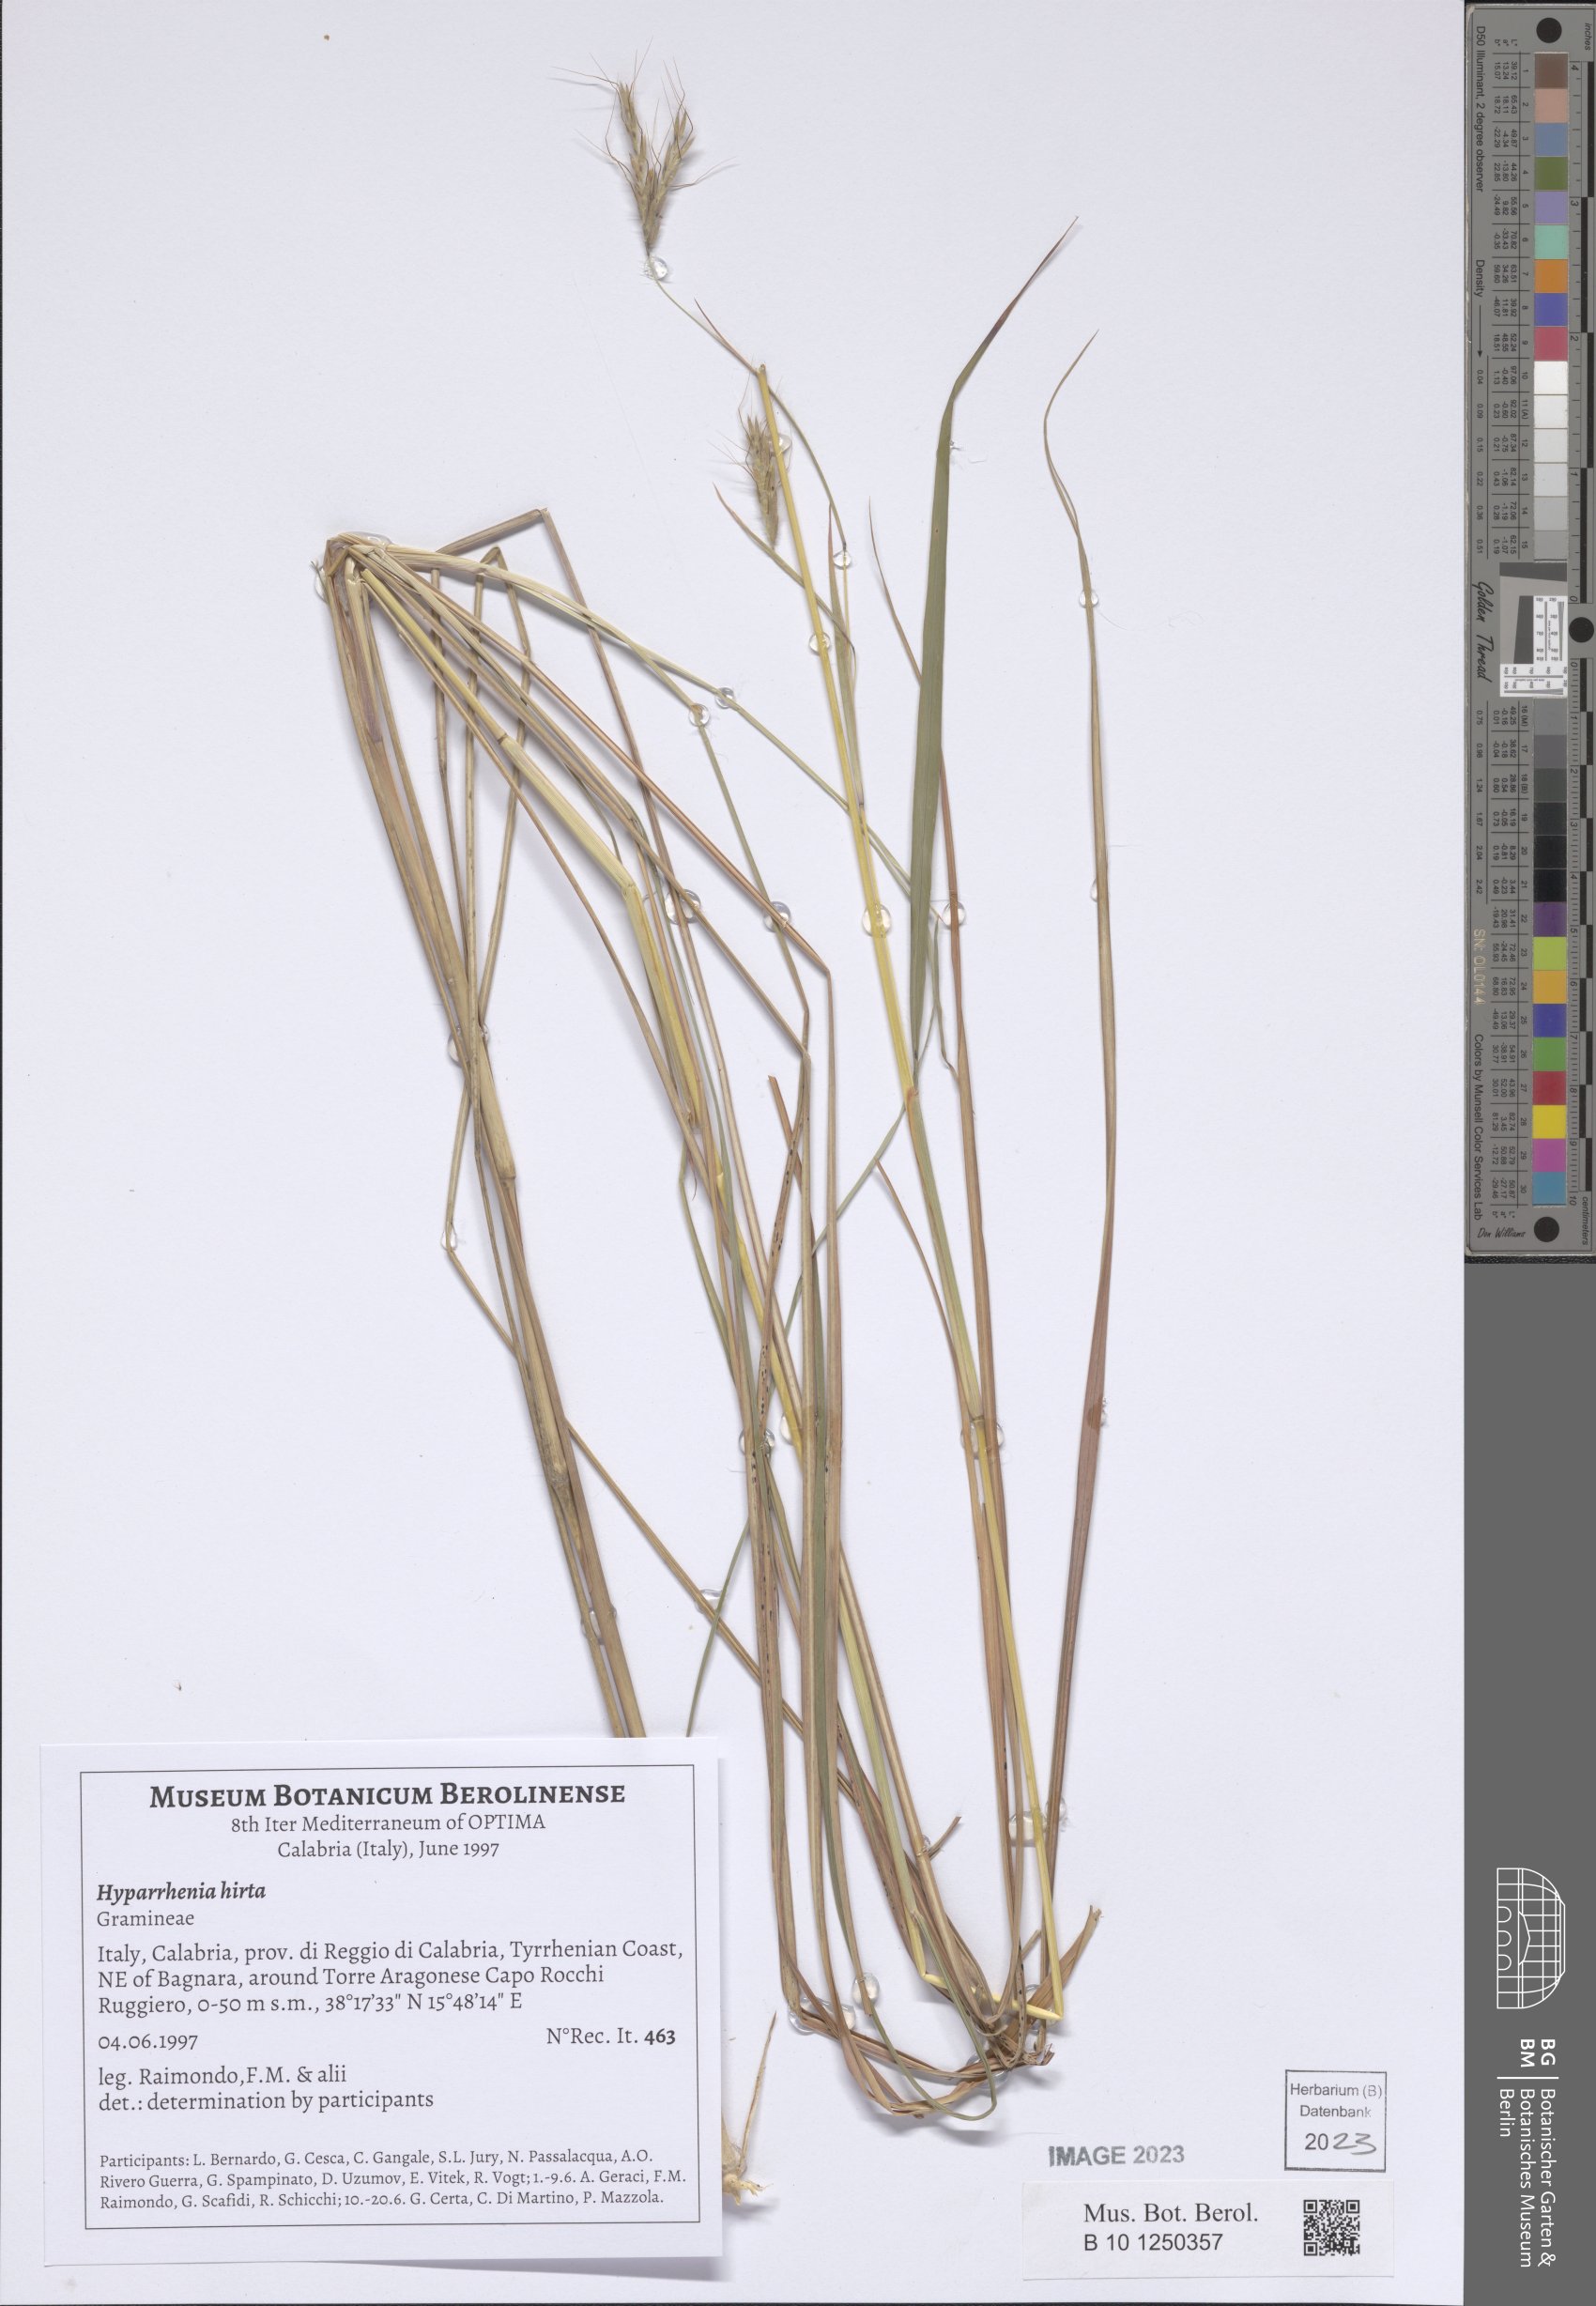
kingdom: Plantae
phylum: Tracheophyta
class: Liliopsida
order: Poales
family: Poaceae
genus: Hyparrhenia
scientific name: Hyparrhenia hirta
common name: Thatching grass
